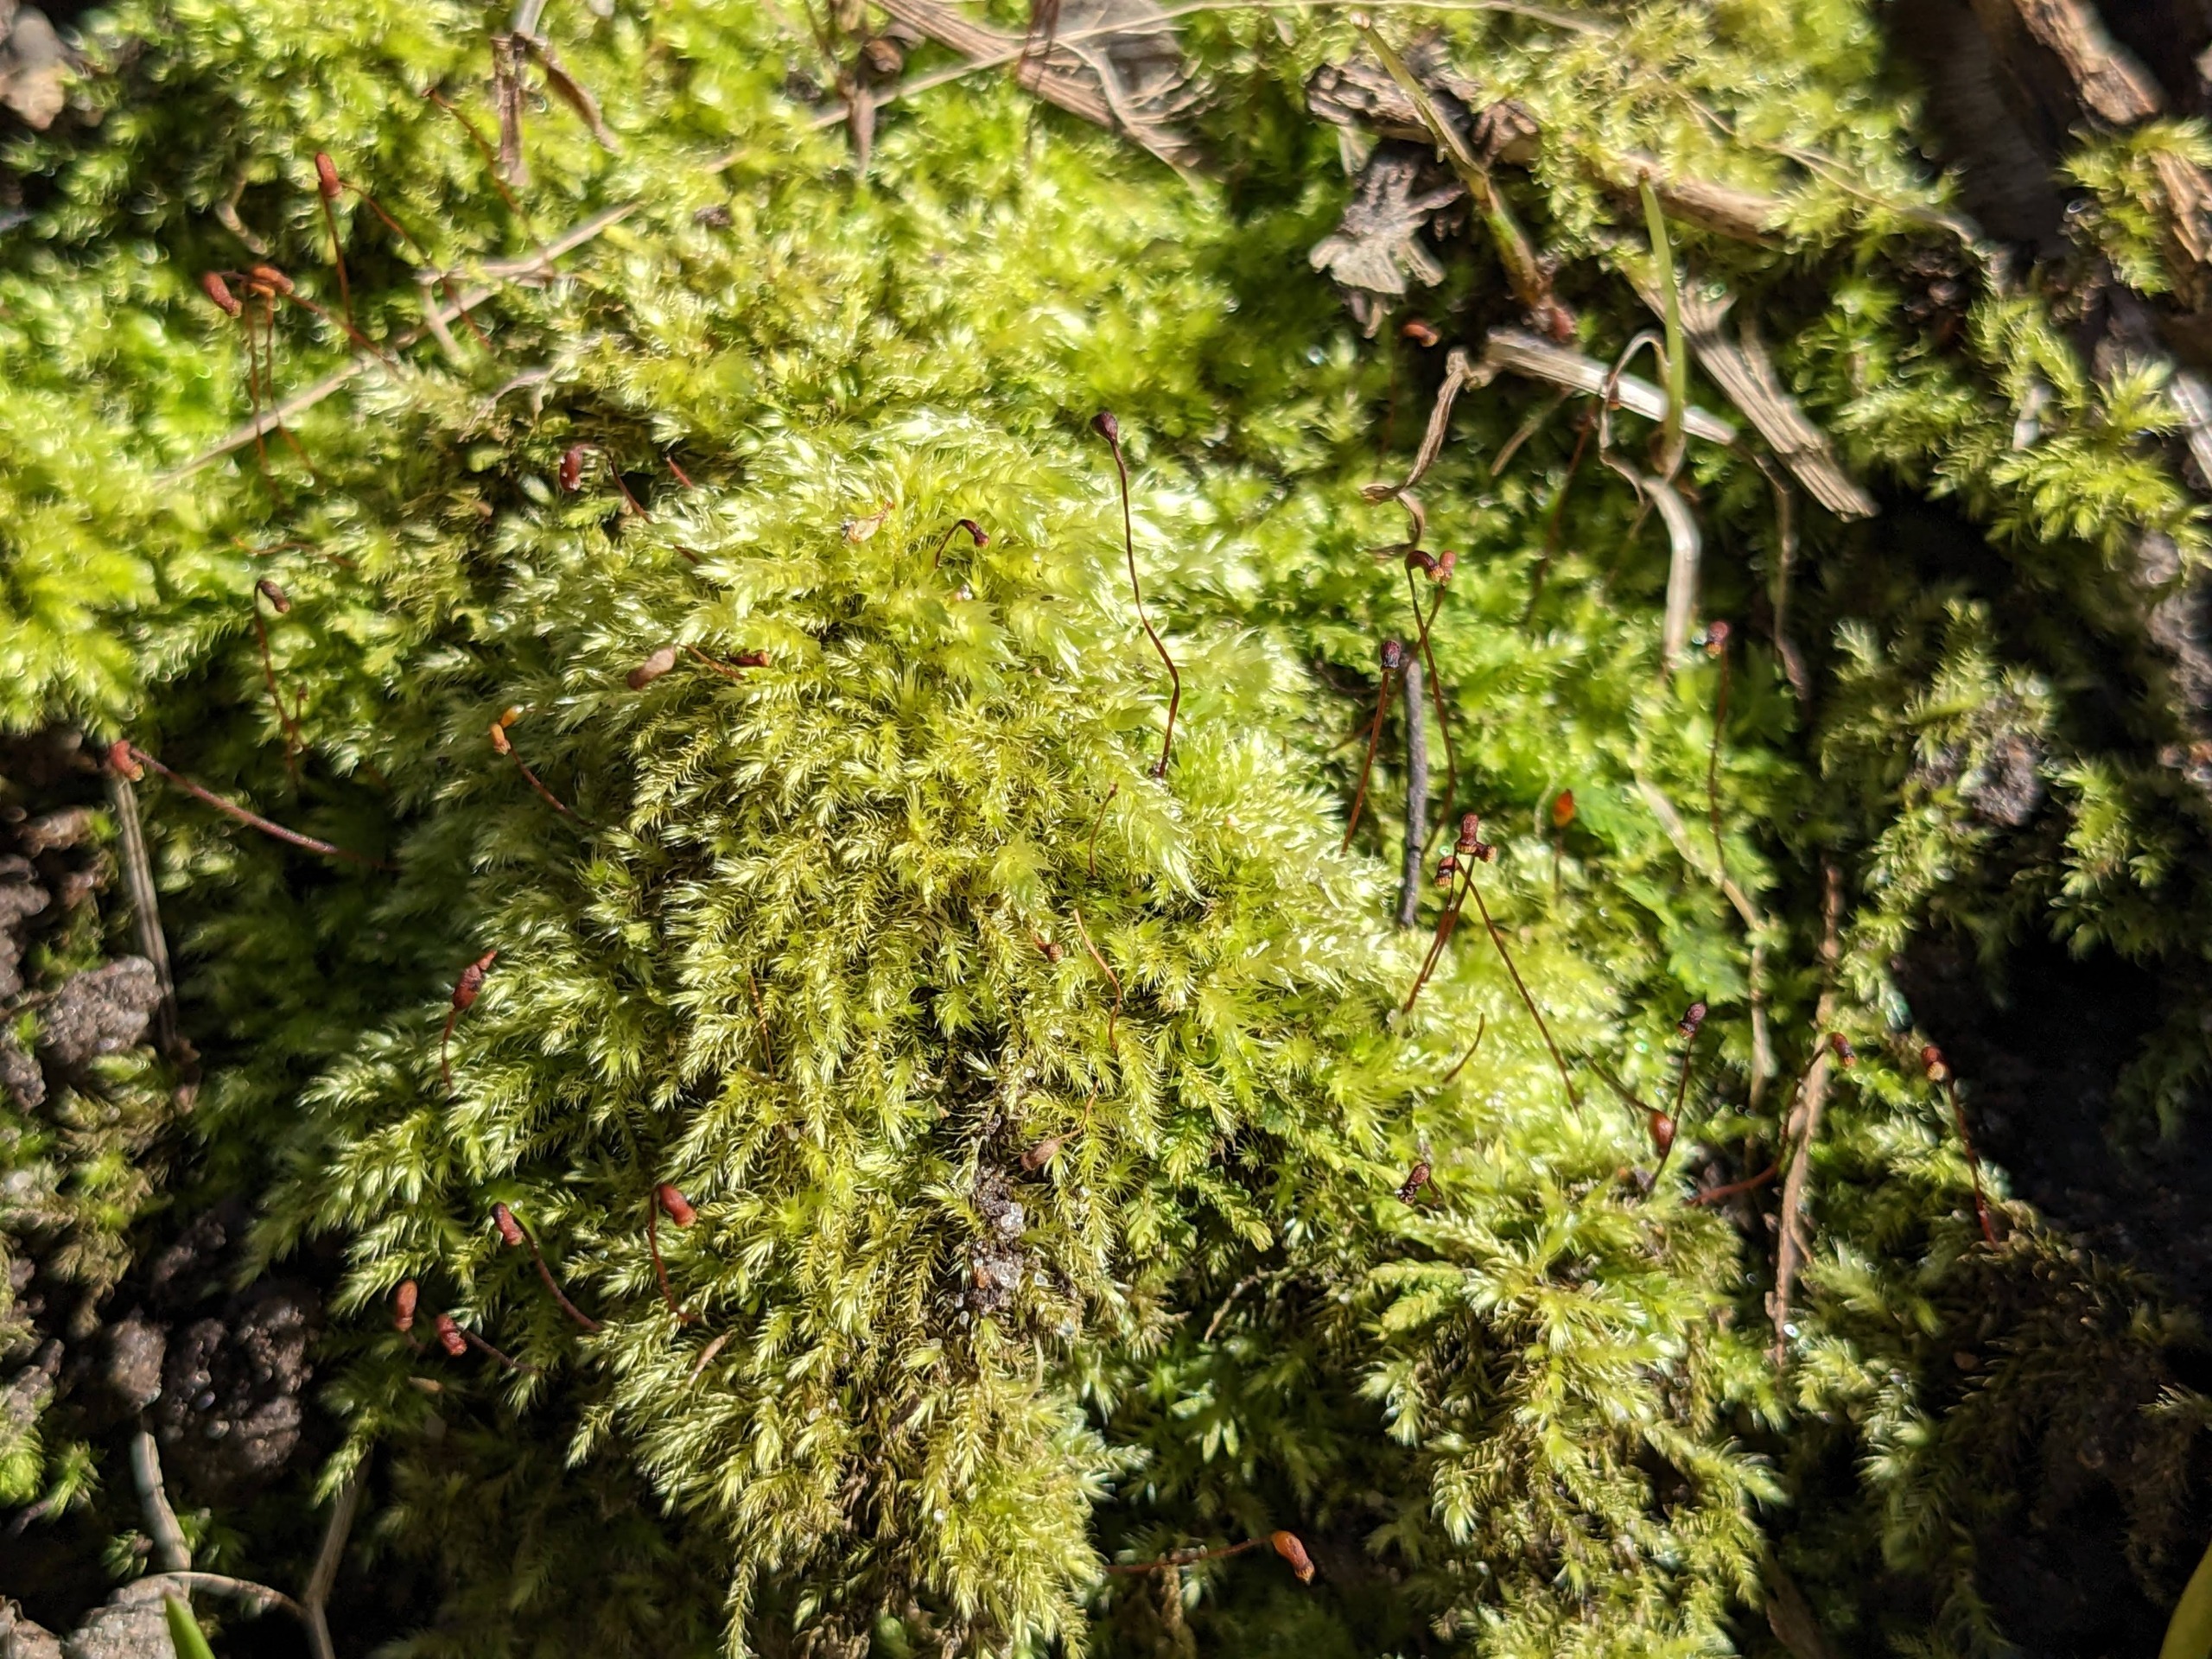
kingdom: Plantae
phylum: Bryophyta
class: Bryopsida
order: Hypnales
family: Brachytheciaceae
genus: Brachytheciastrum
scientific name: Brachytheciastrum velutinum
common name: Fløjls-kortkapsel
